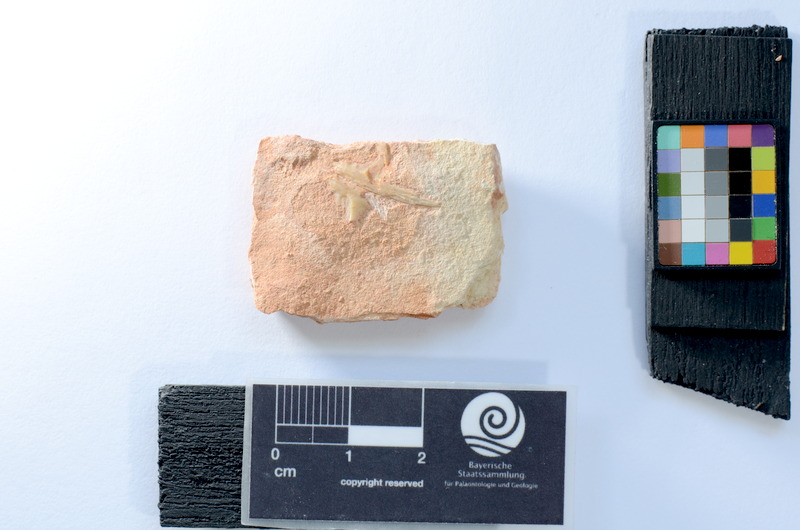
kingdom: Animalia
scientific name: Animalia
